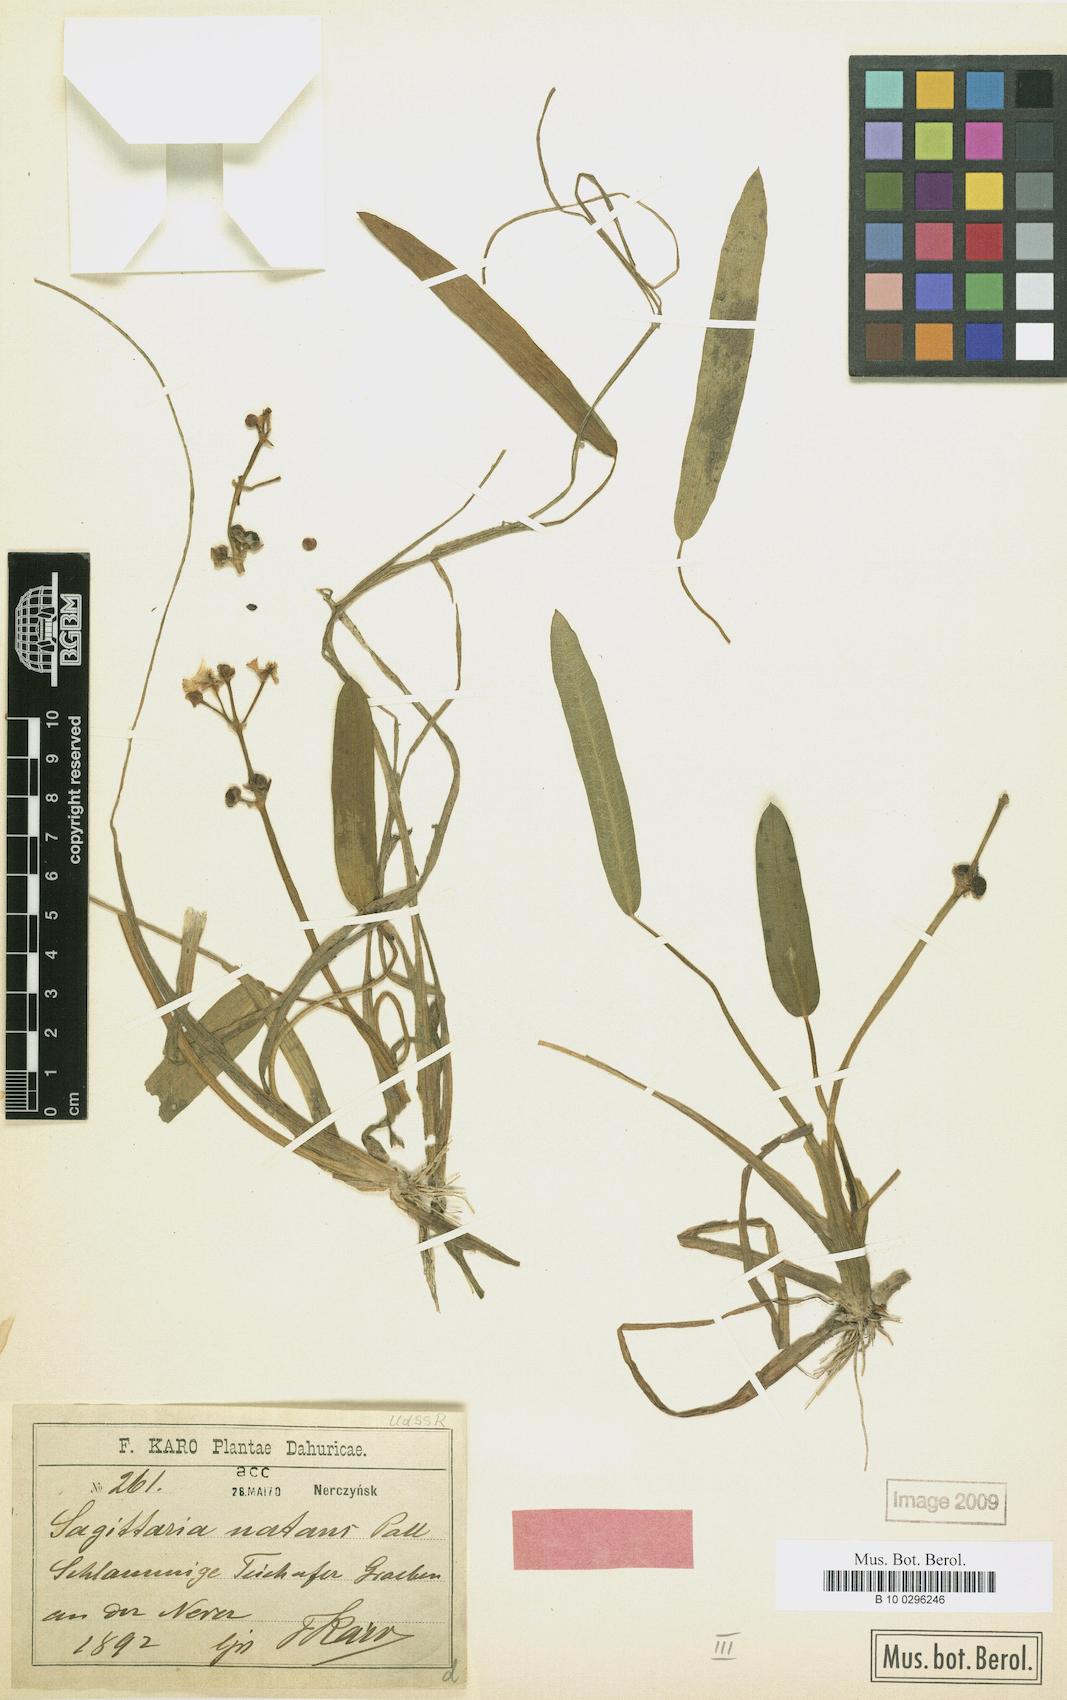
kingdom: Plantae
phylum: Tracheophyta
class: Liliopsida
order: Alismatales
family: Alismataceae
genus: Sagittaria
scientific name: Sagittaria natans
